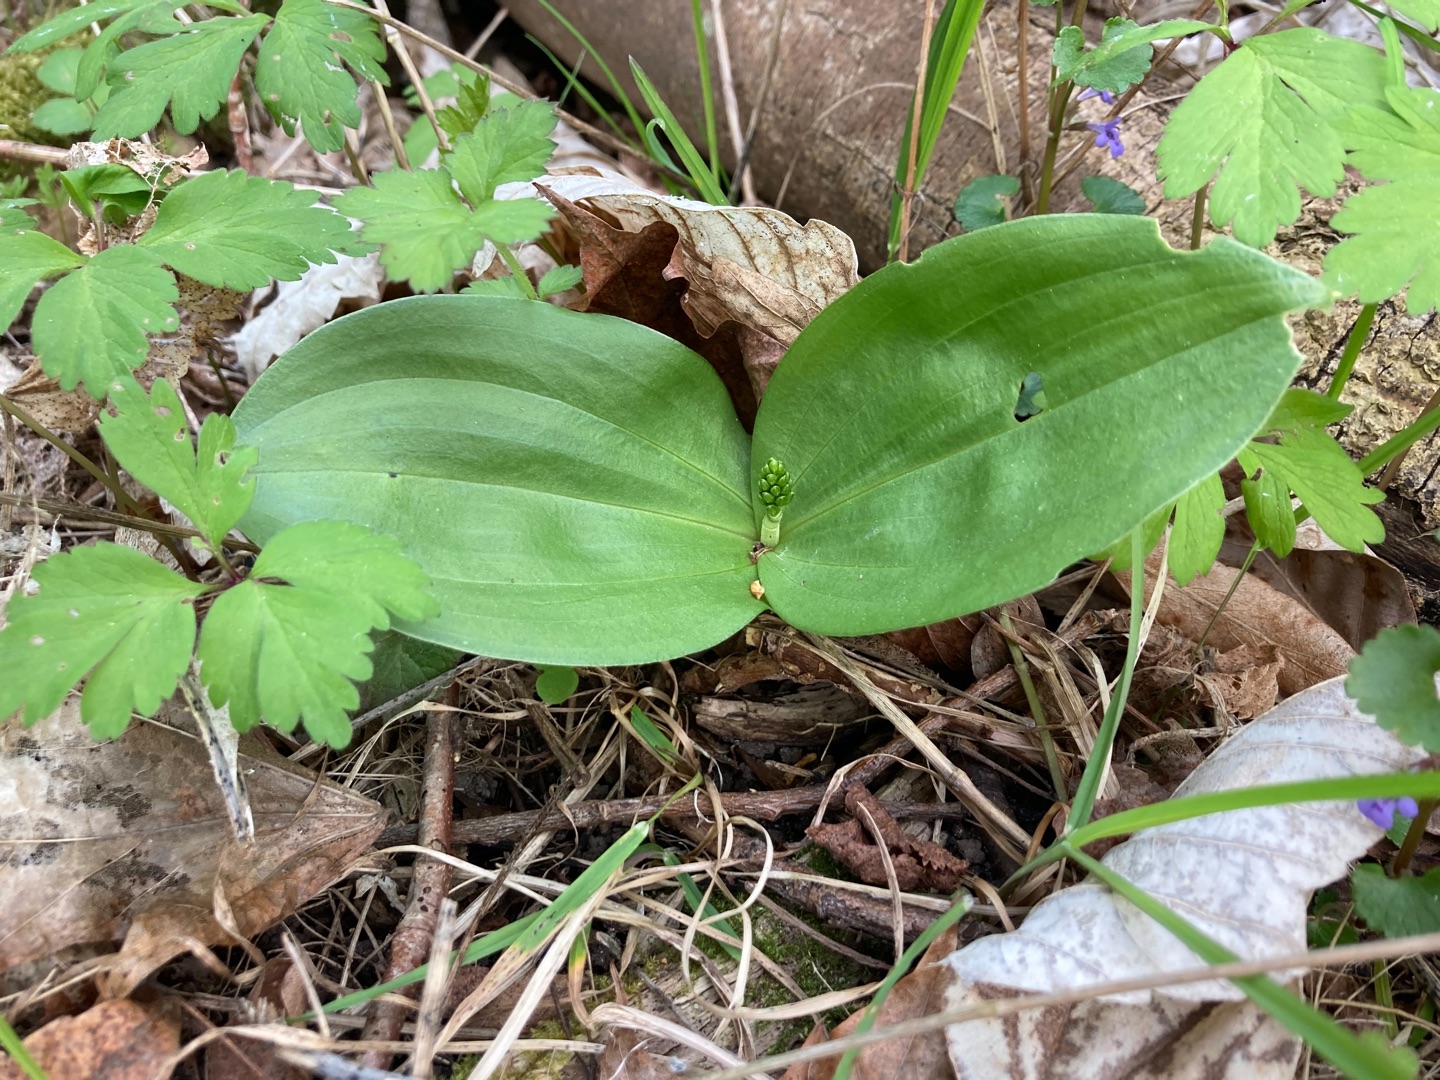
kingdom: Plantae
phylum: Tracheophyta
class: Liliopsida
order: Asparagales
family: Orchidaceae
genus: Neottia
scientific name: Neottia ovata
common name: Ægbladet fliglæbe
